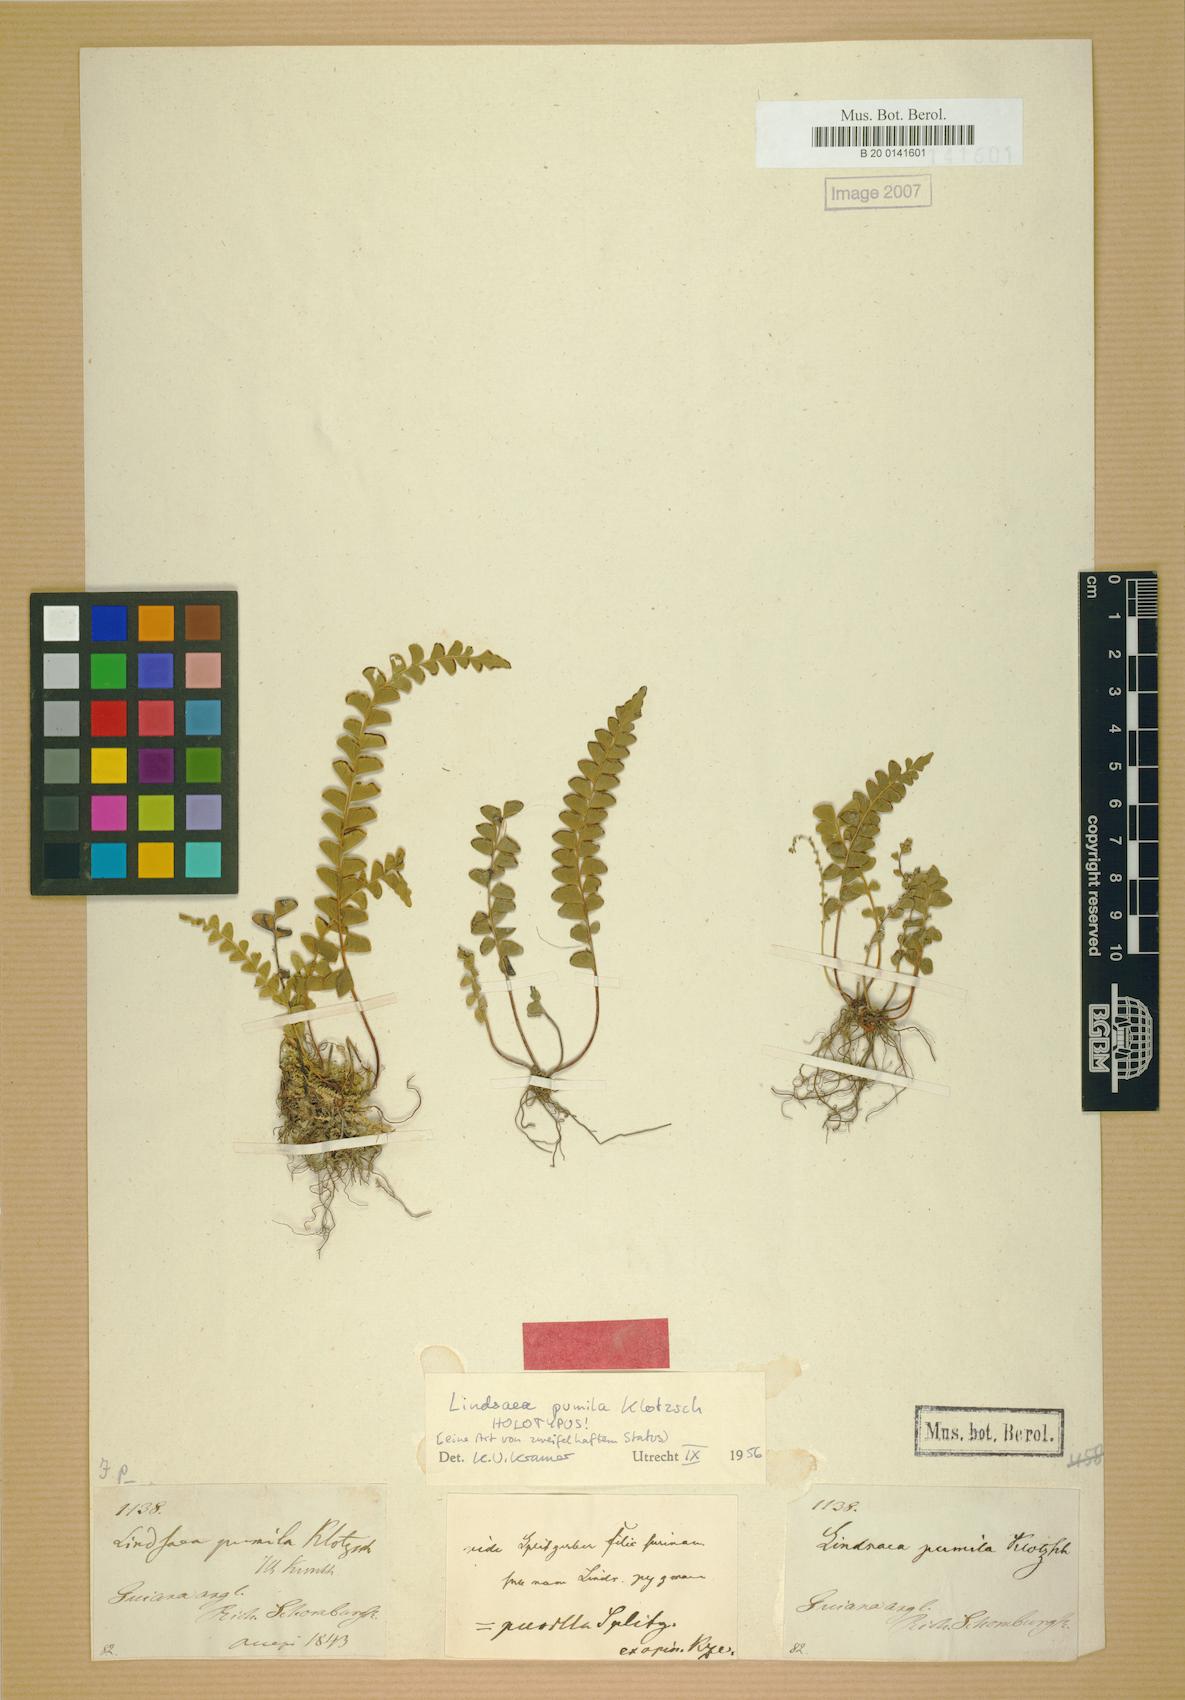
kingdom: Plantae
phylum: Tracheophyta
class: Polypodiopsida
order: Polypodiales
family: Lindsaeaceae
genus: Lindsaea
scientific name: Lindsaea pumila
